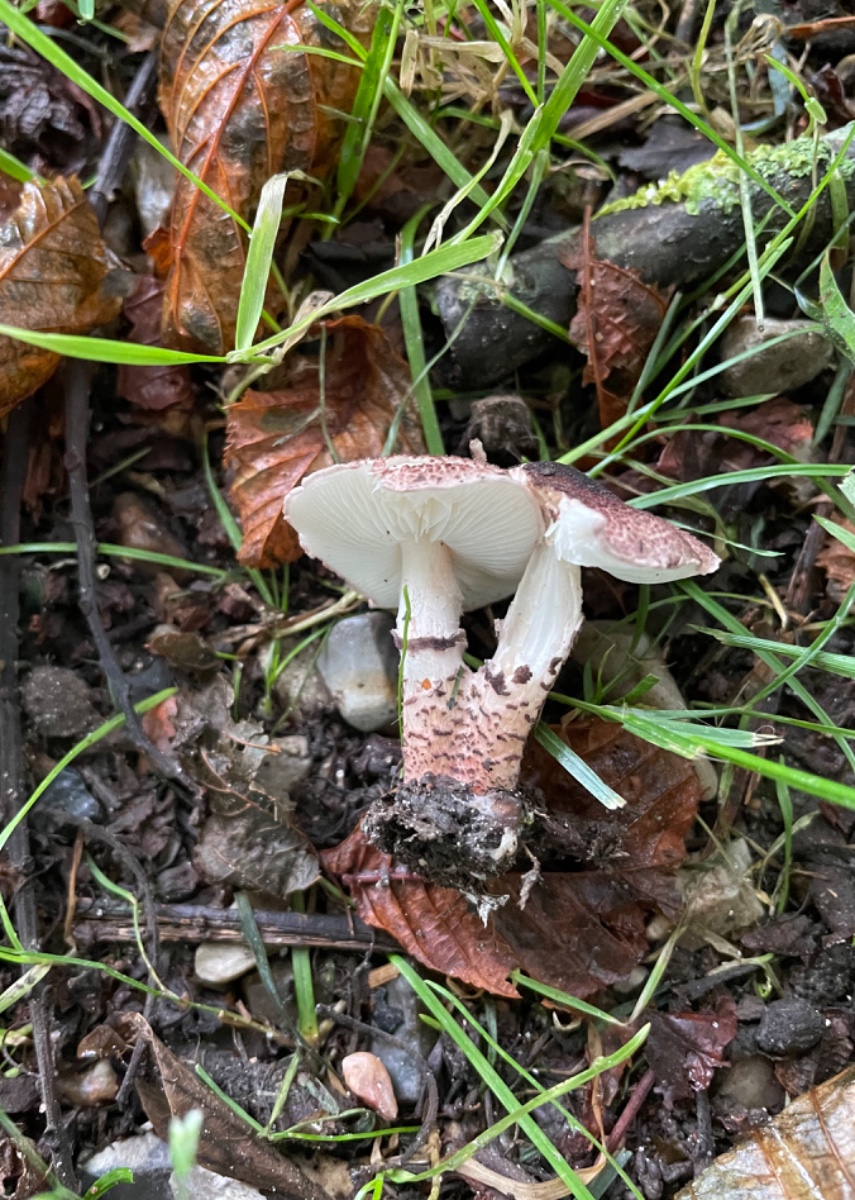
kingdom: Fungi
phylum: Basidiomycota
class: Agaricomycetes
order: Agaricales
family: Agaricaceae
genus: Lepiota
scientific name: Lepiota brunneoincarnata
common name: brunrød parasolhat
